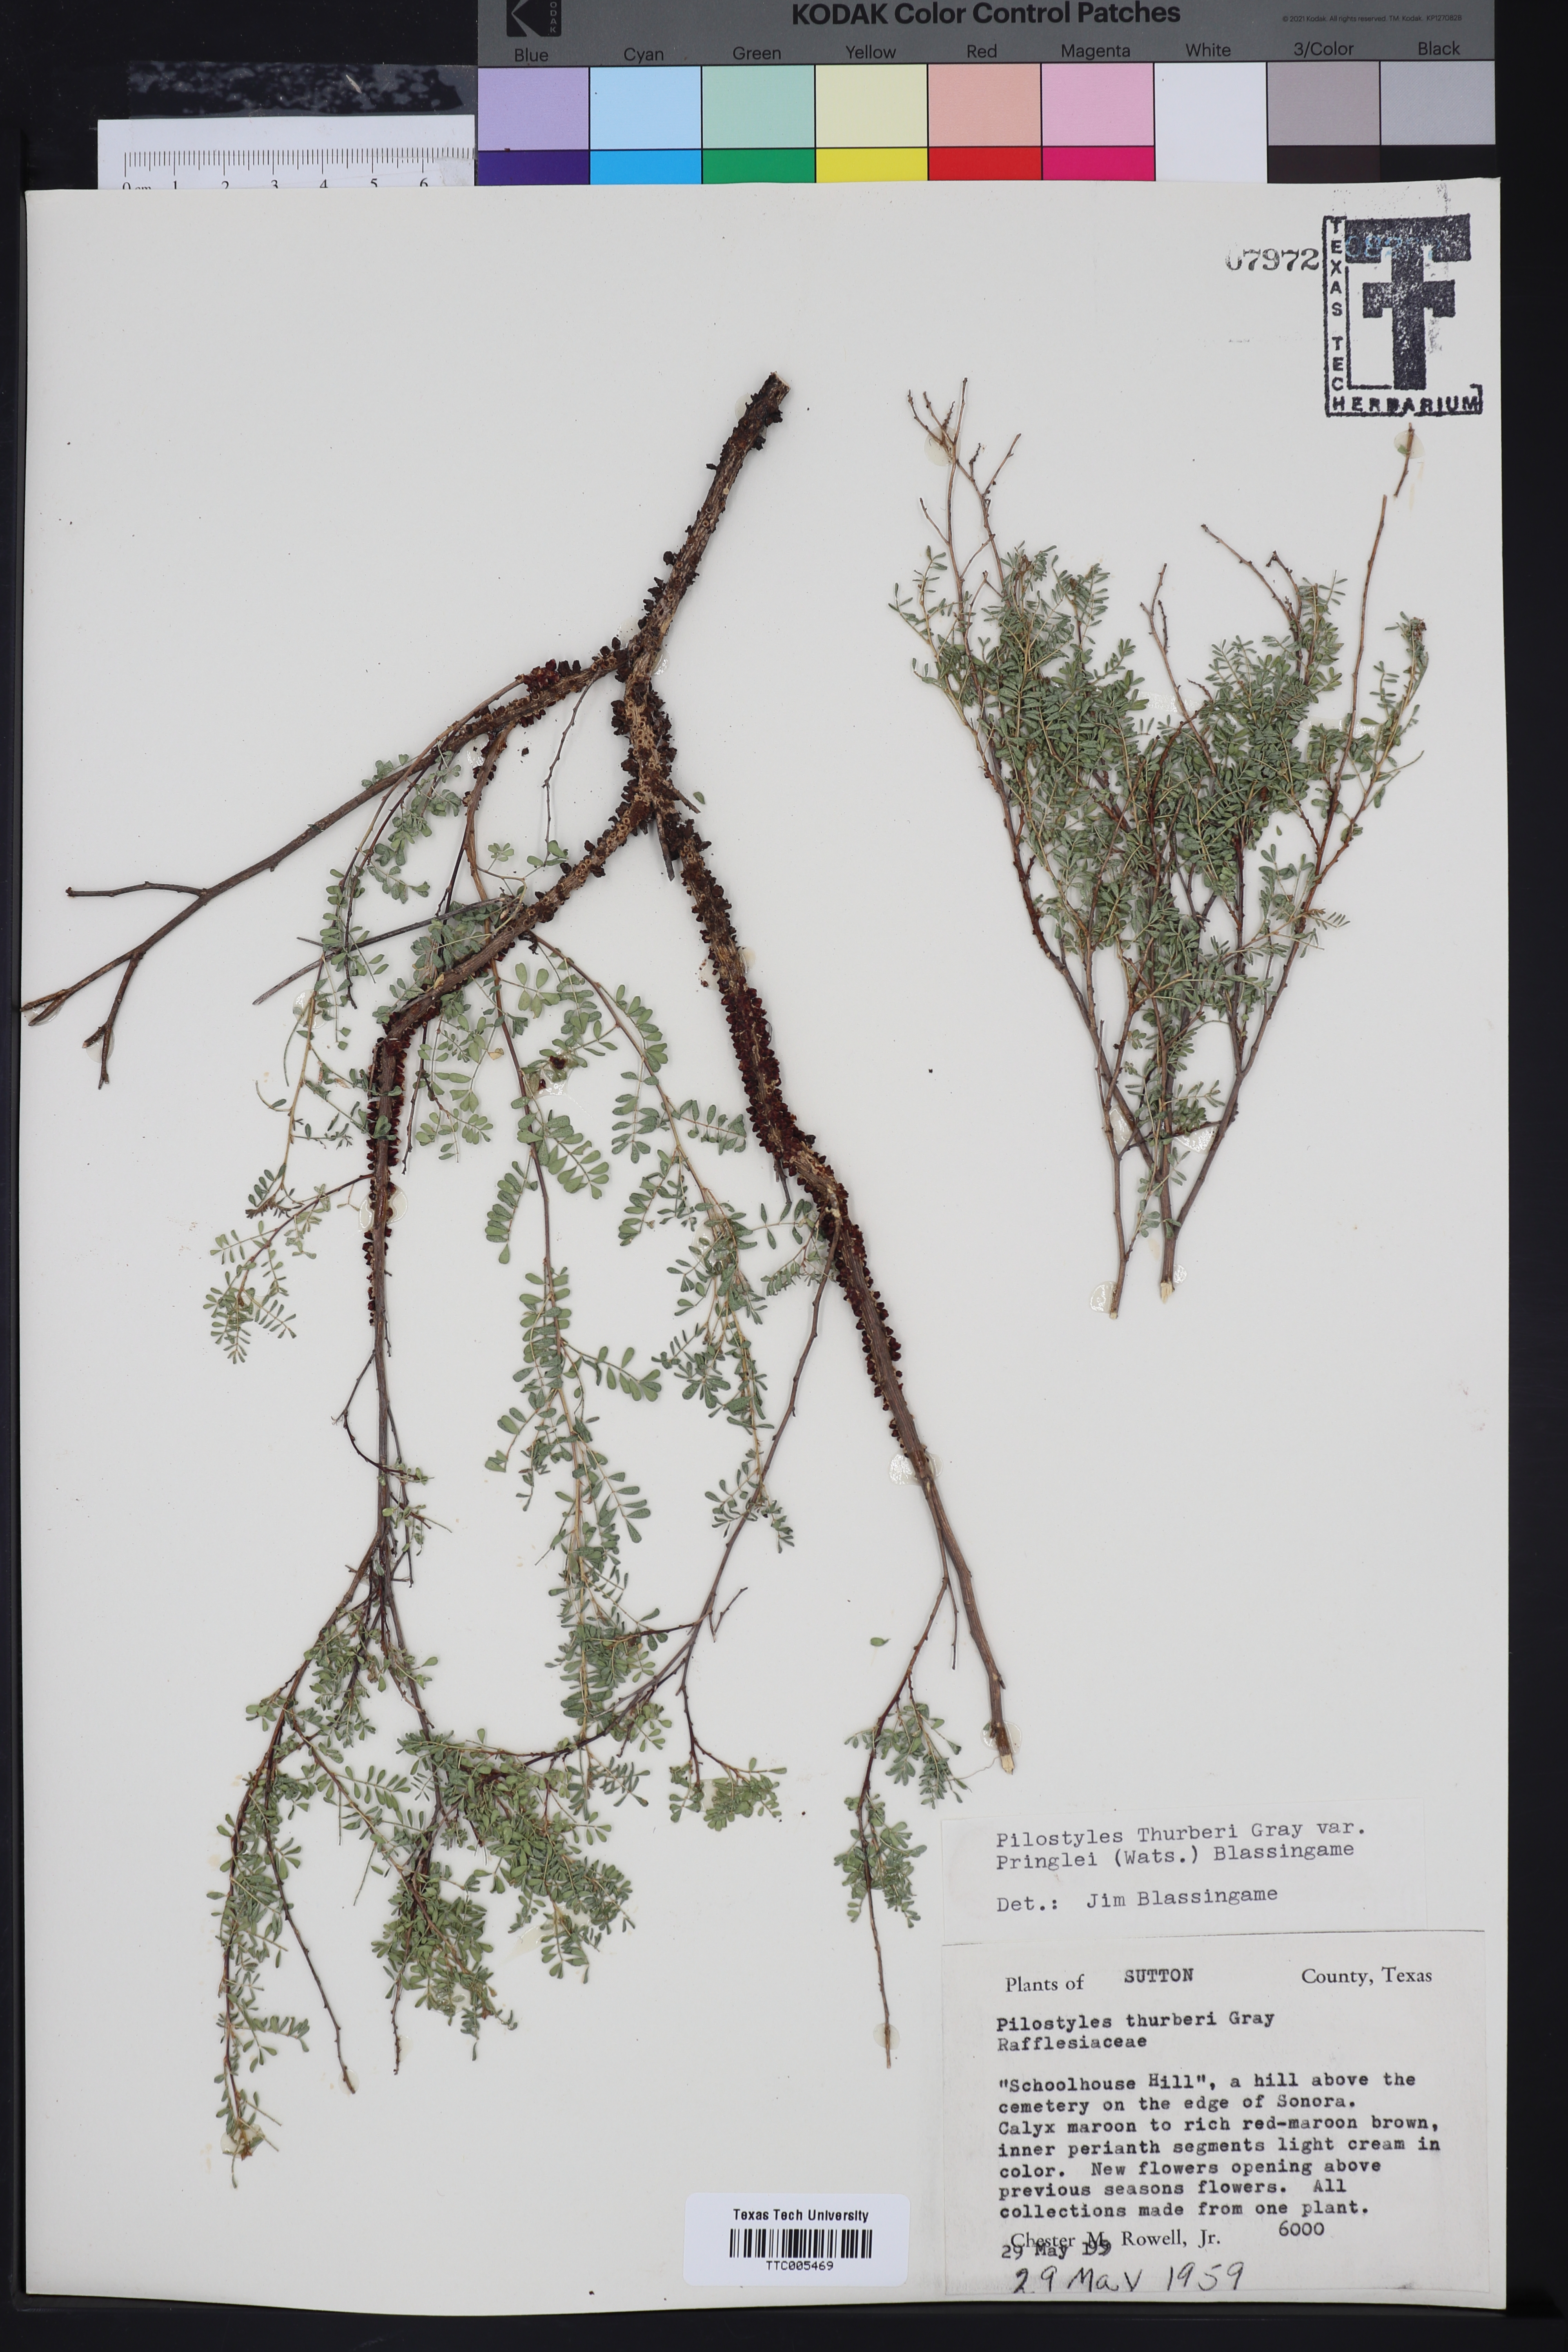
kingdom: Plantae
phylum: Tracheophyta
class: Magnoliopsida
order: Cucurbitales
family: Apodanthaceae
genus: Pilostyles
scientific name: Pilostyles thurberi
